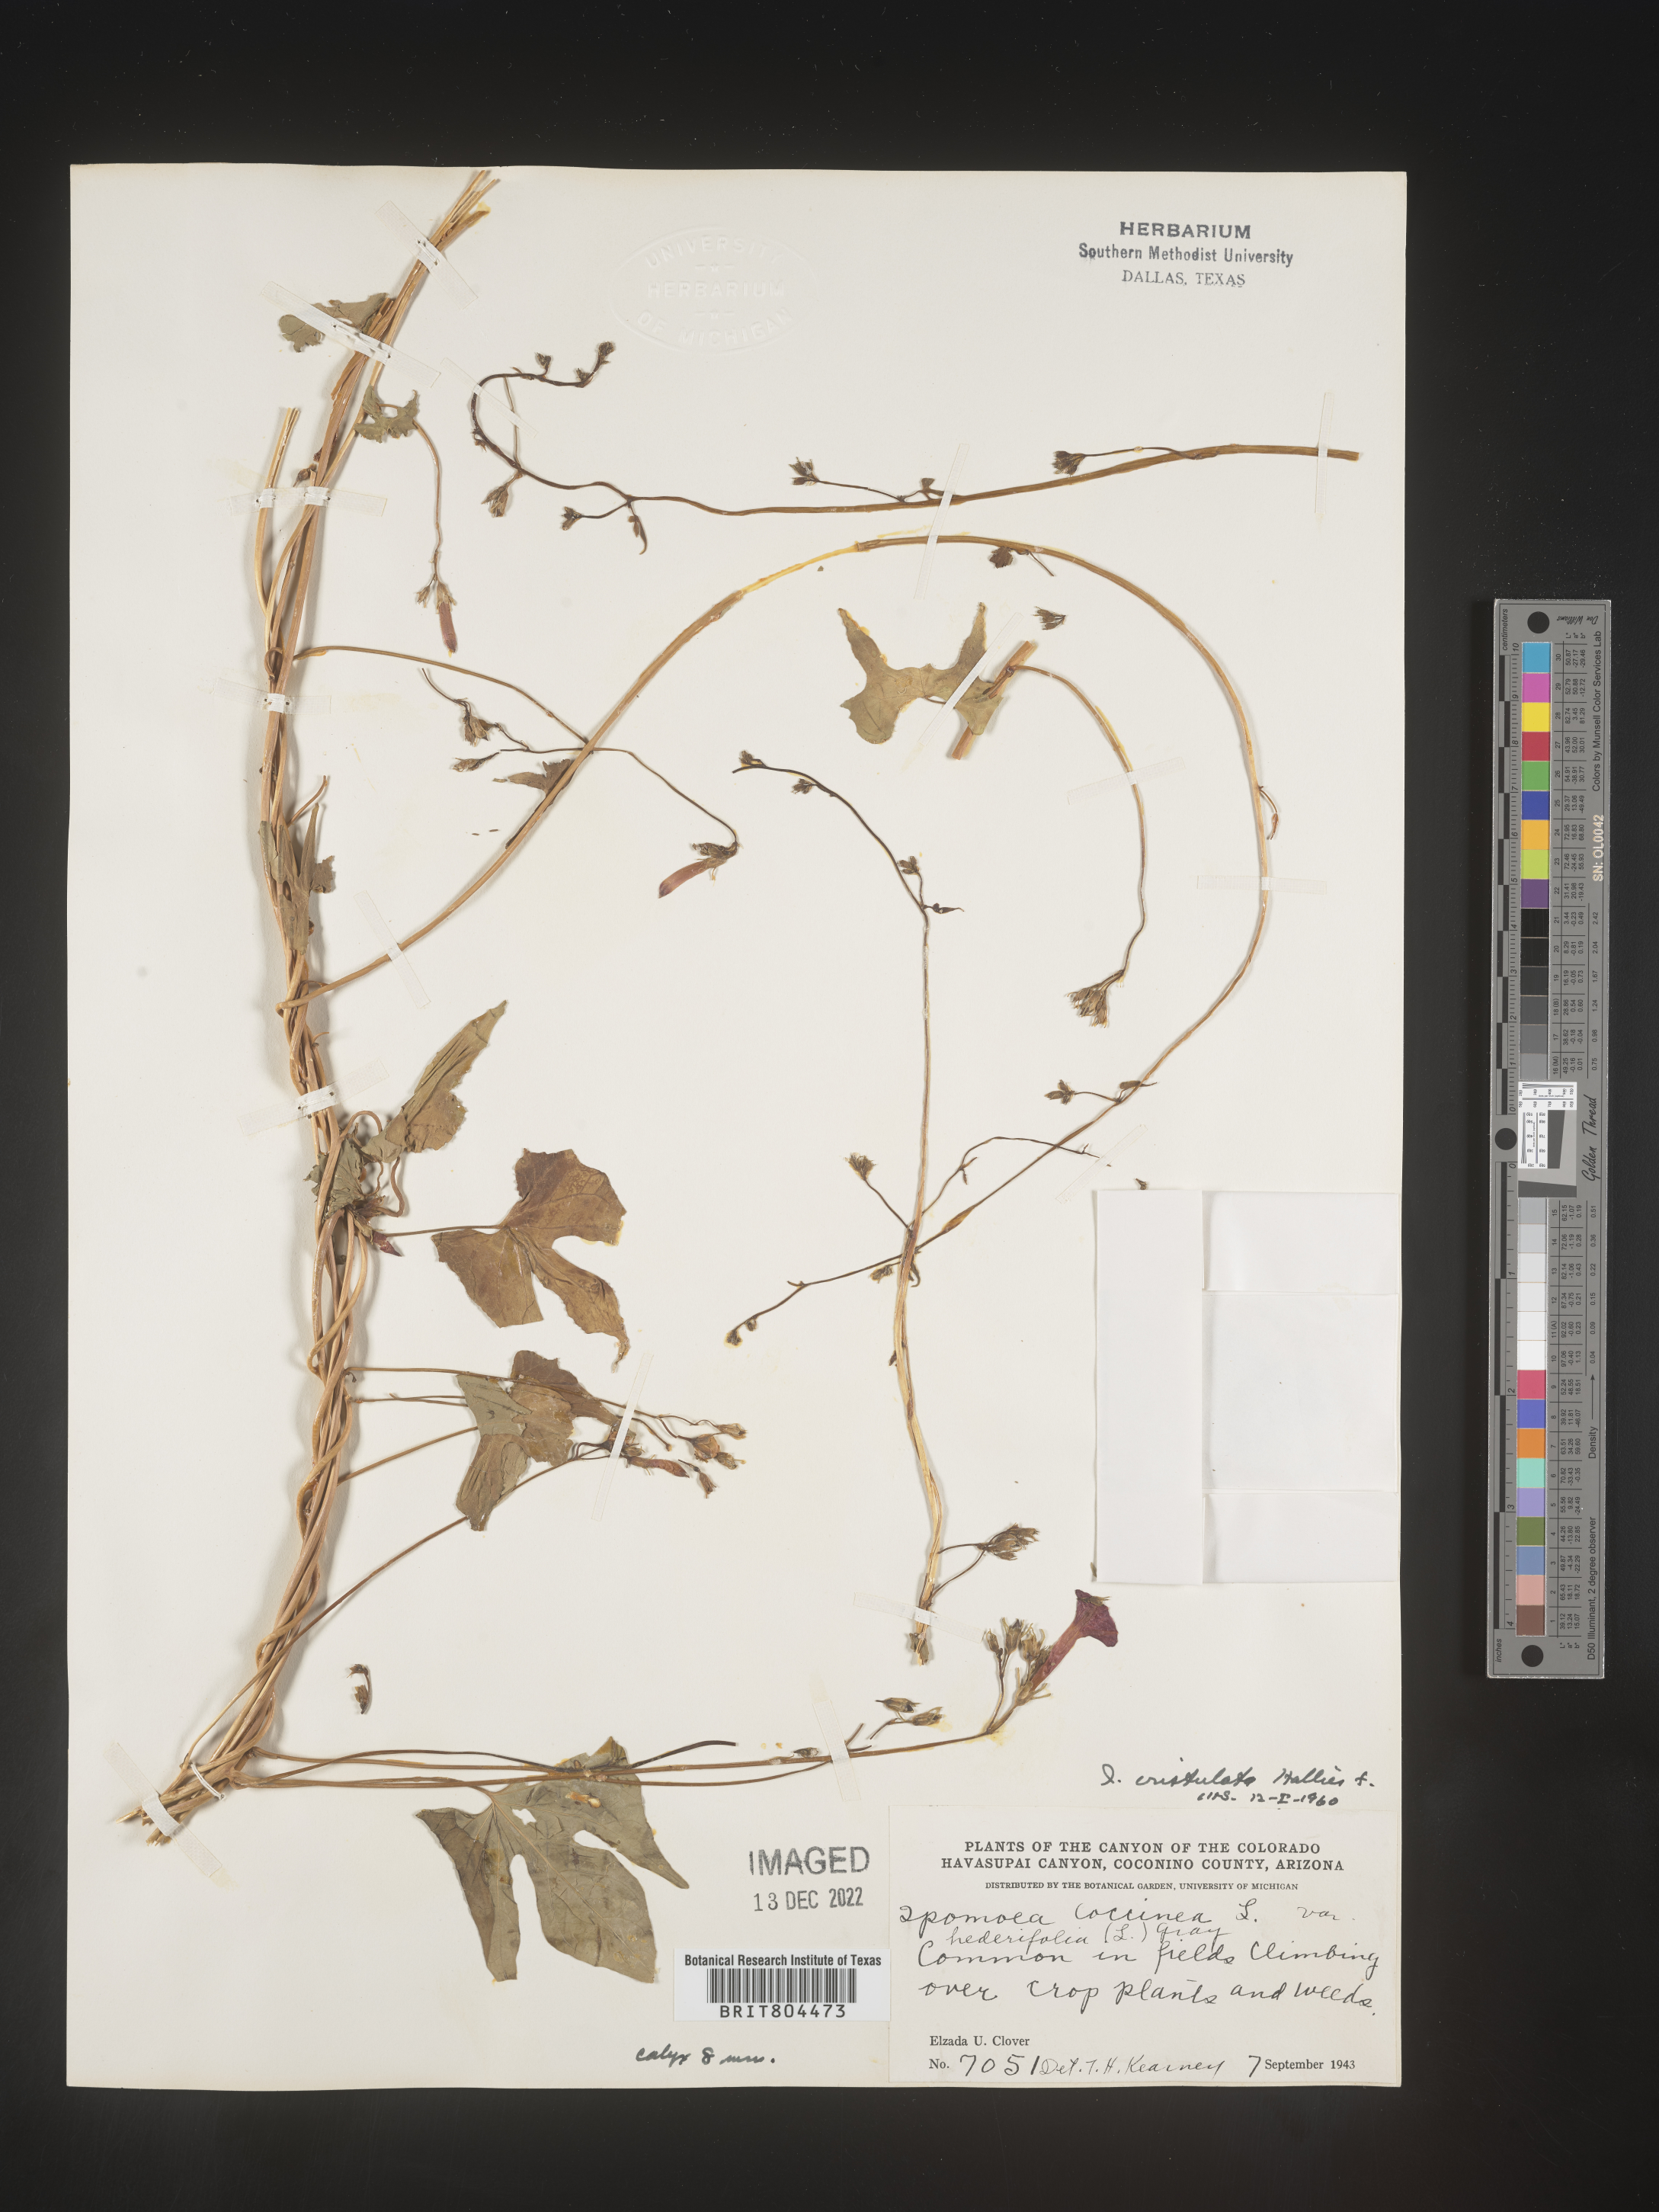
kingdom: Plantae
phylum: Tracheophyta
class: Magnoliopsida
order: Solanales
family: Convolvulaceae
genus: Ipomoea
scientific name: Ipomoea cristulata
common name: Trans-pecos morning-glory
